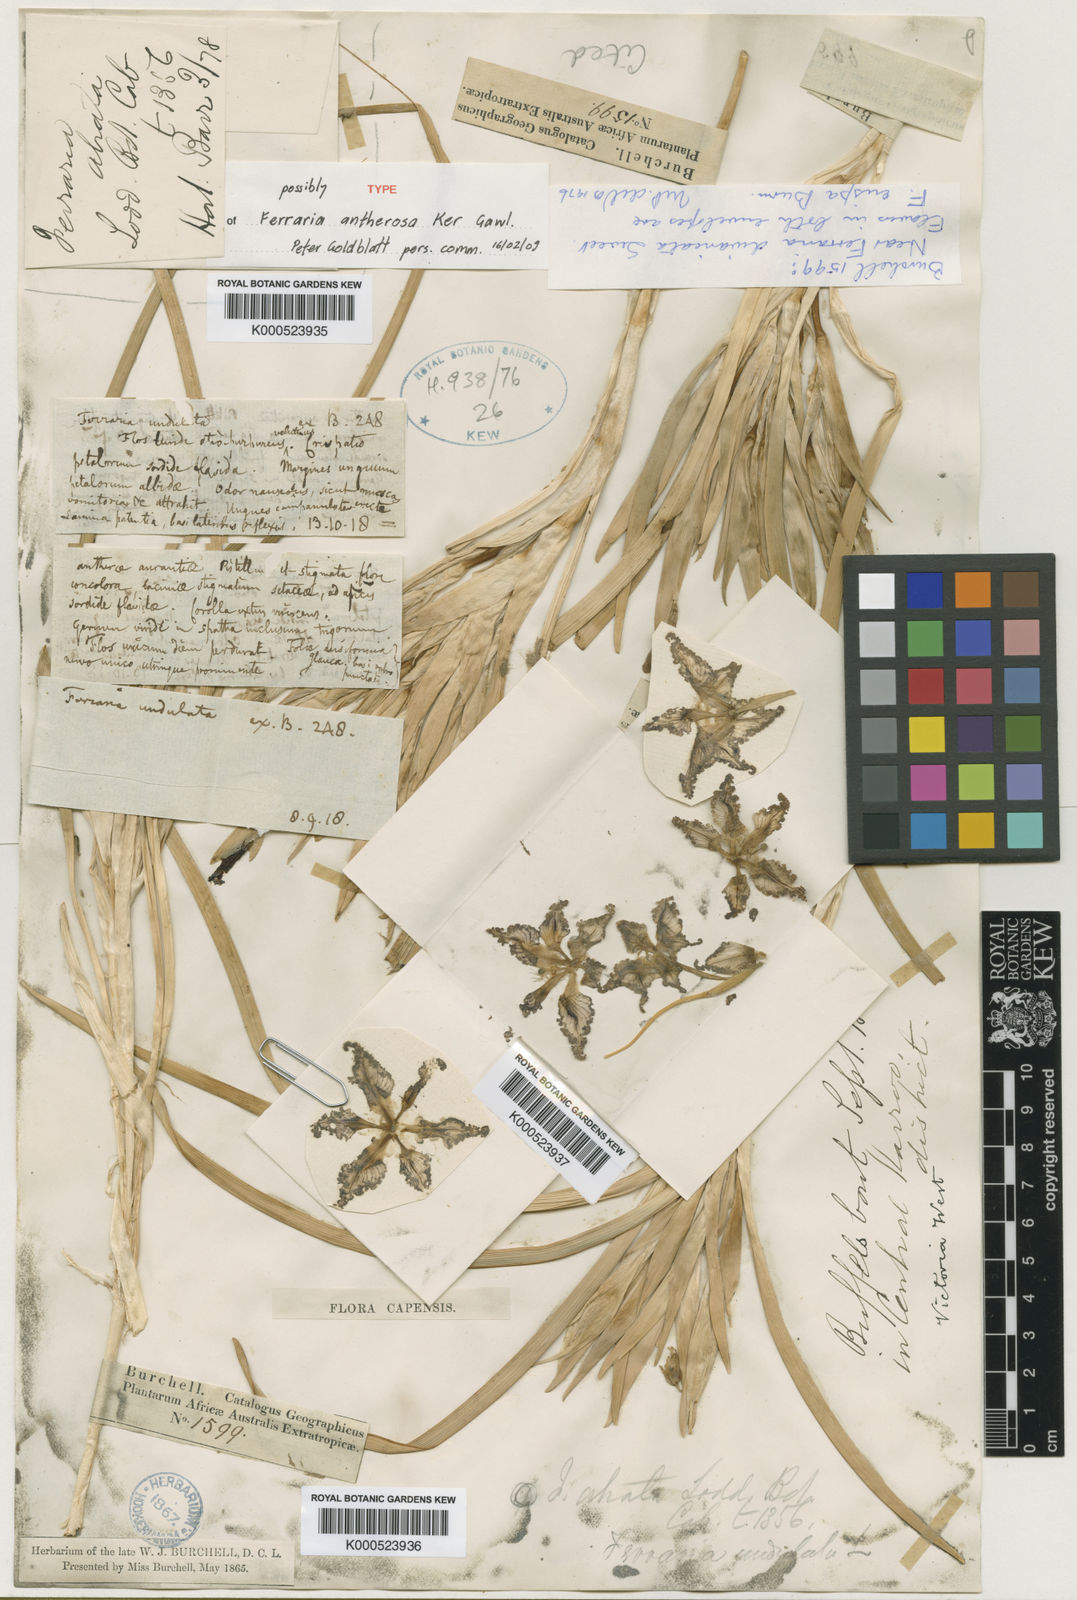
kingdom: Plantae
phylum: Tracheophyta
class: Liliopsida
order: Asparagales
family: Iridaceae
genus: Ferraria
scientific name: Ferraria ferrariola
